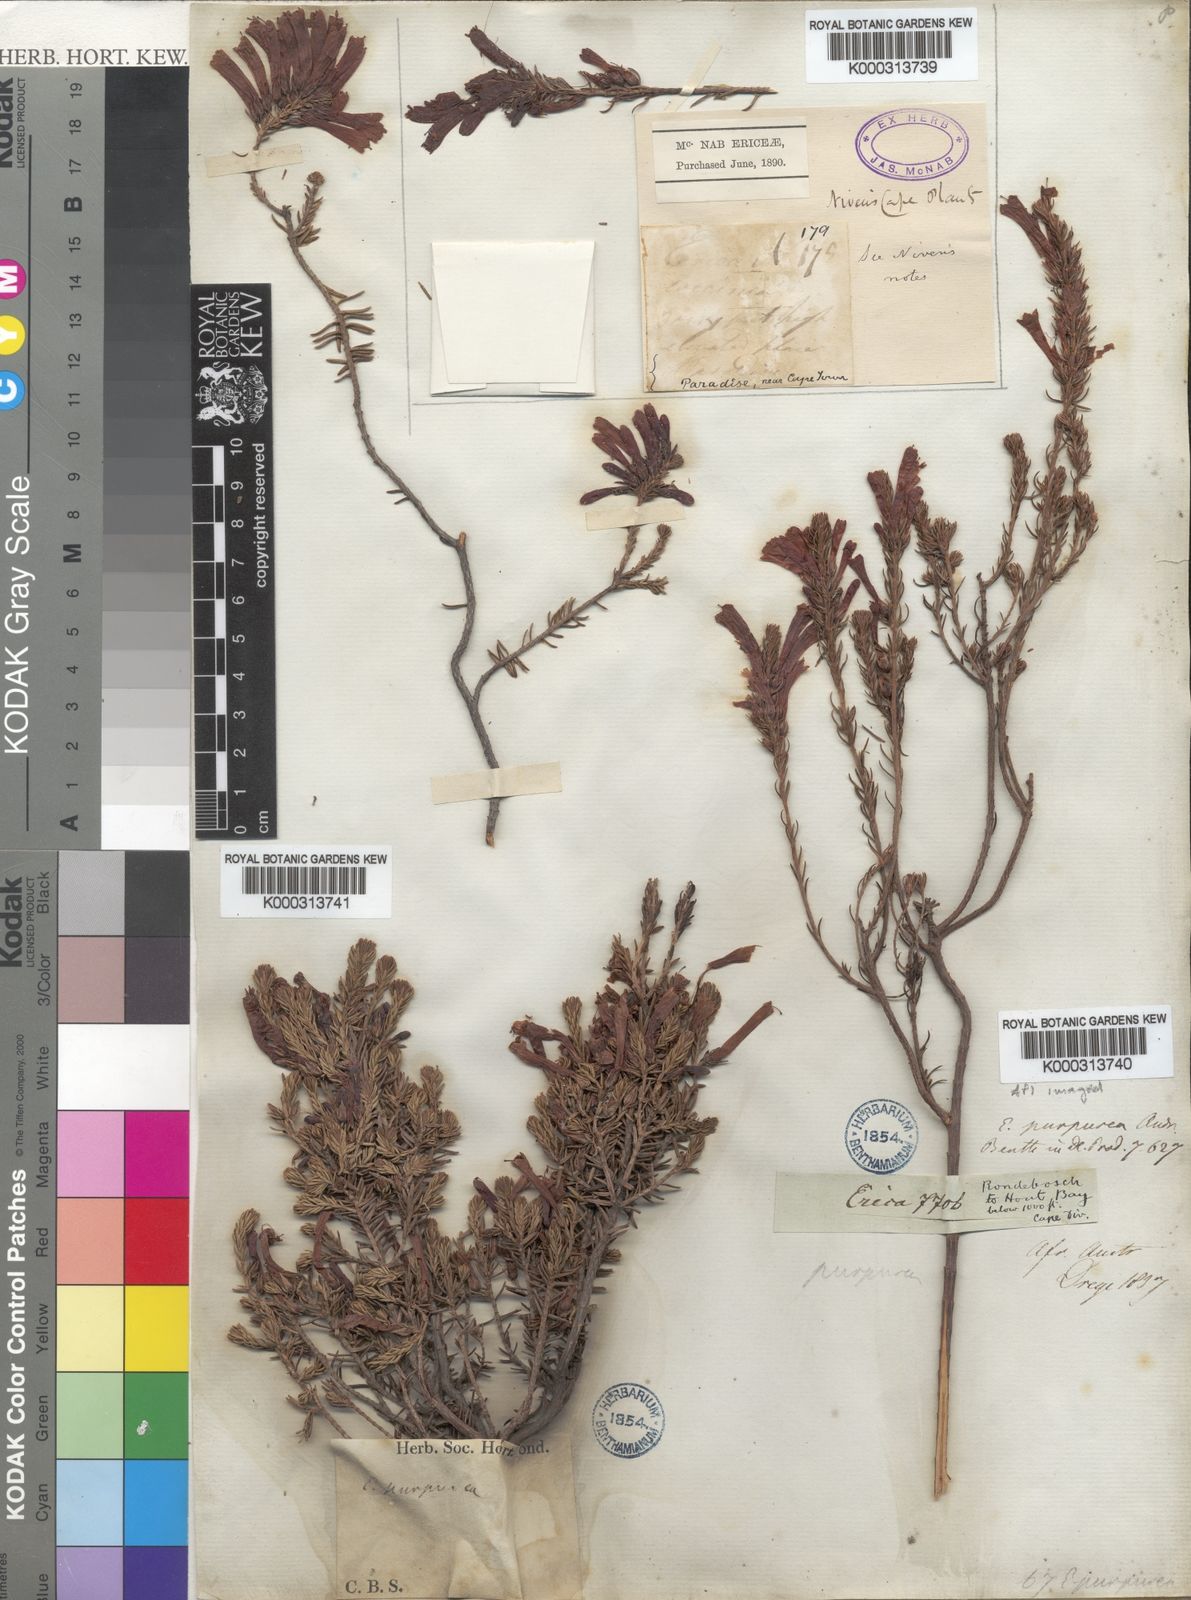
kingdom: Plantae
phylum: Tracheophyta
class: Magnoliopsida
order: Ericales
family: Ericaceae
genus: Erica
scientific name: Erica abietina
